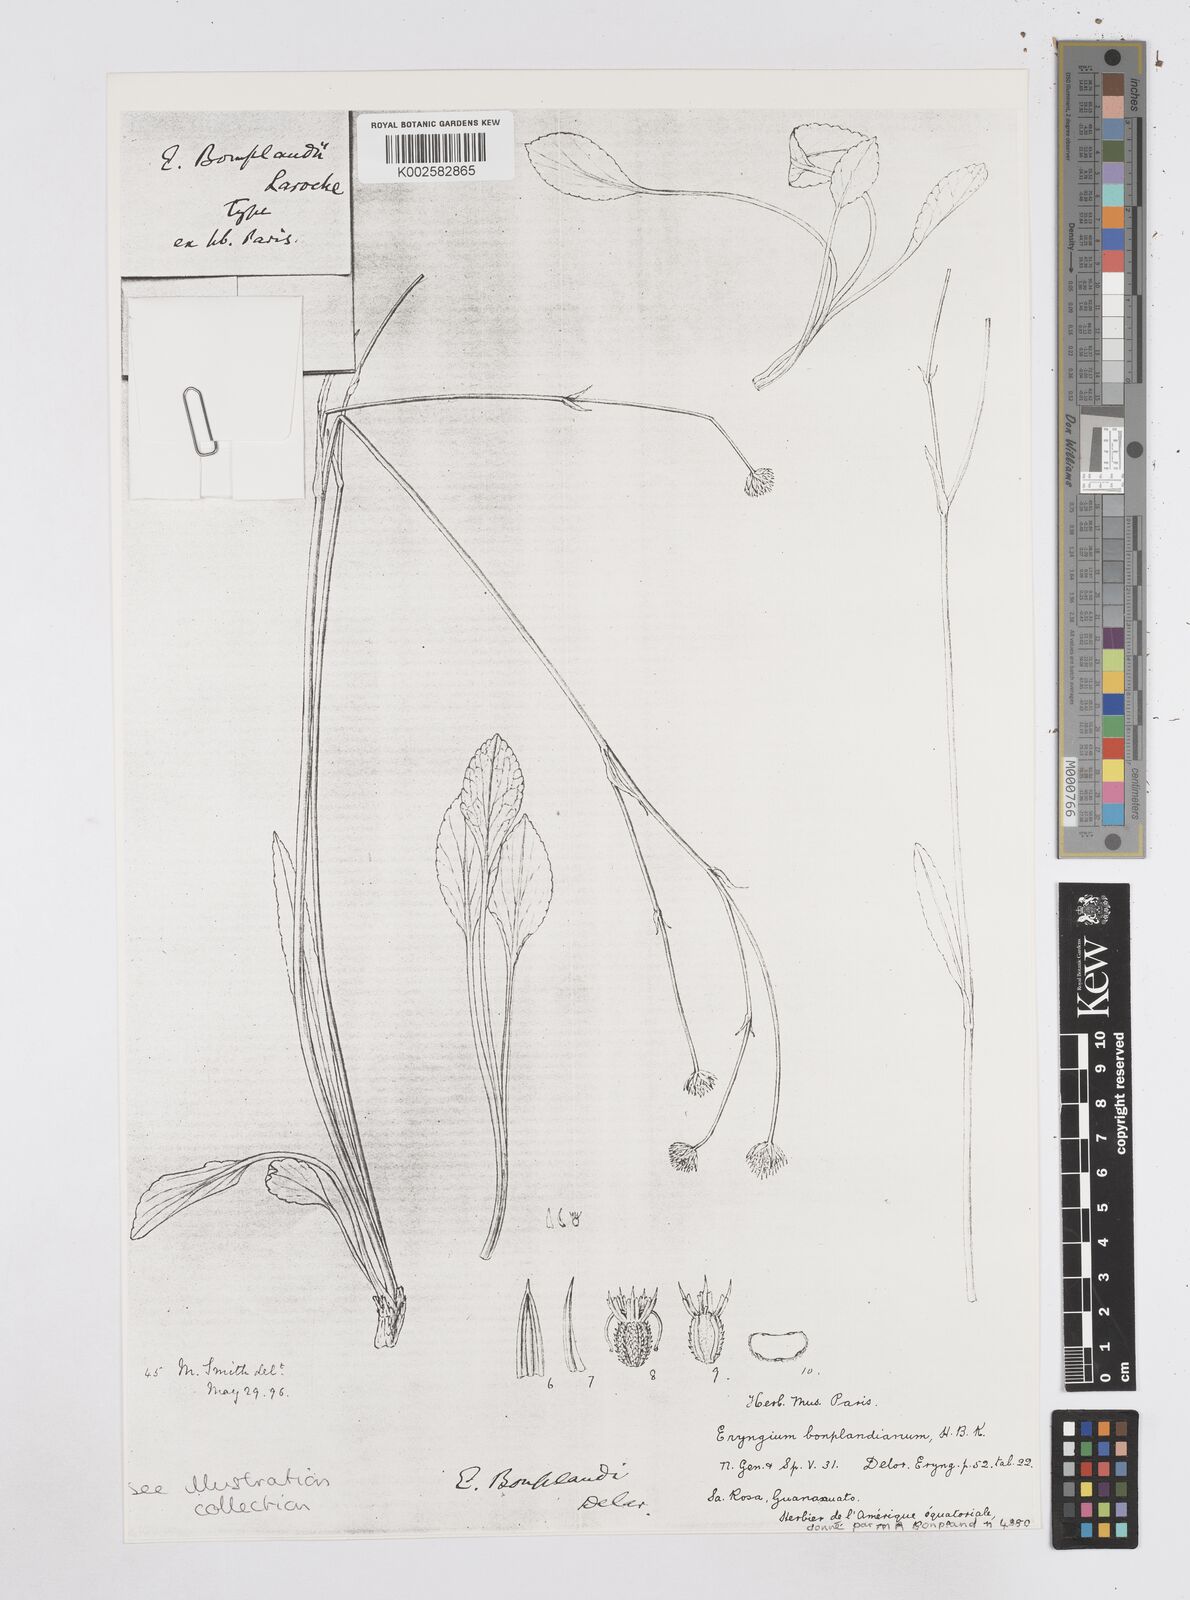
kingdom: Plantae
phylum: Tracheophyta
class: Magnoliopsida
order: Apiales
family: Apiaceae
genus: Eryngium
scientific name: Eryngium bonplandii
